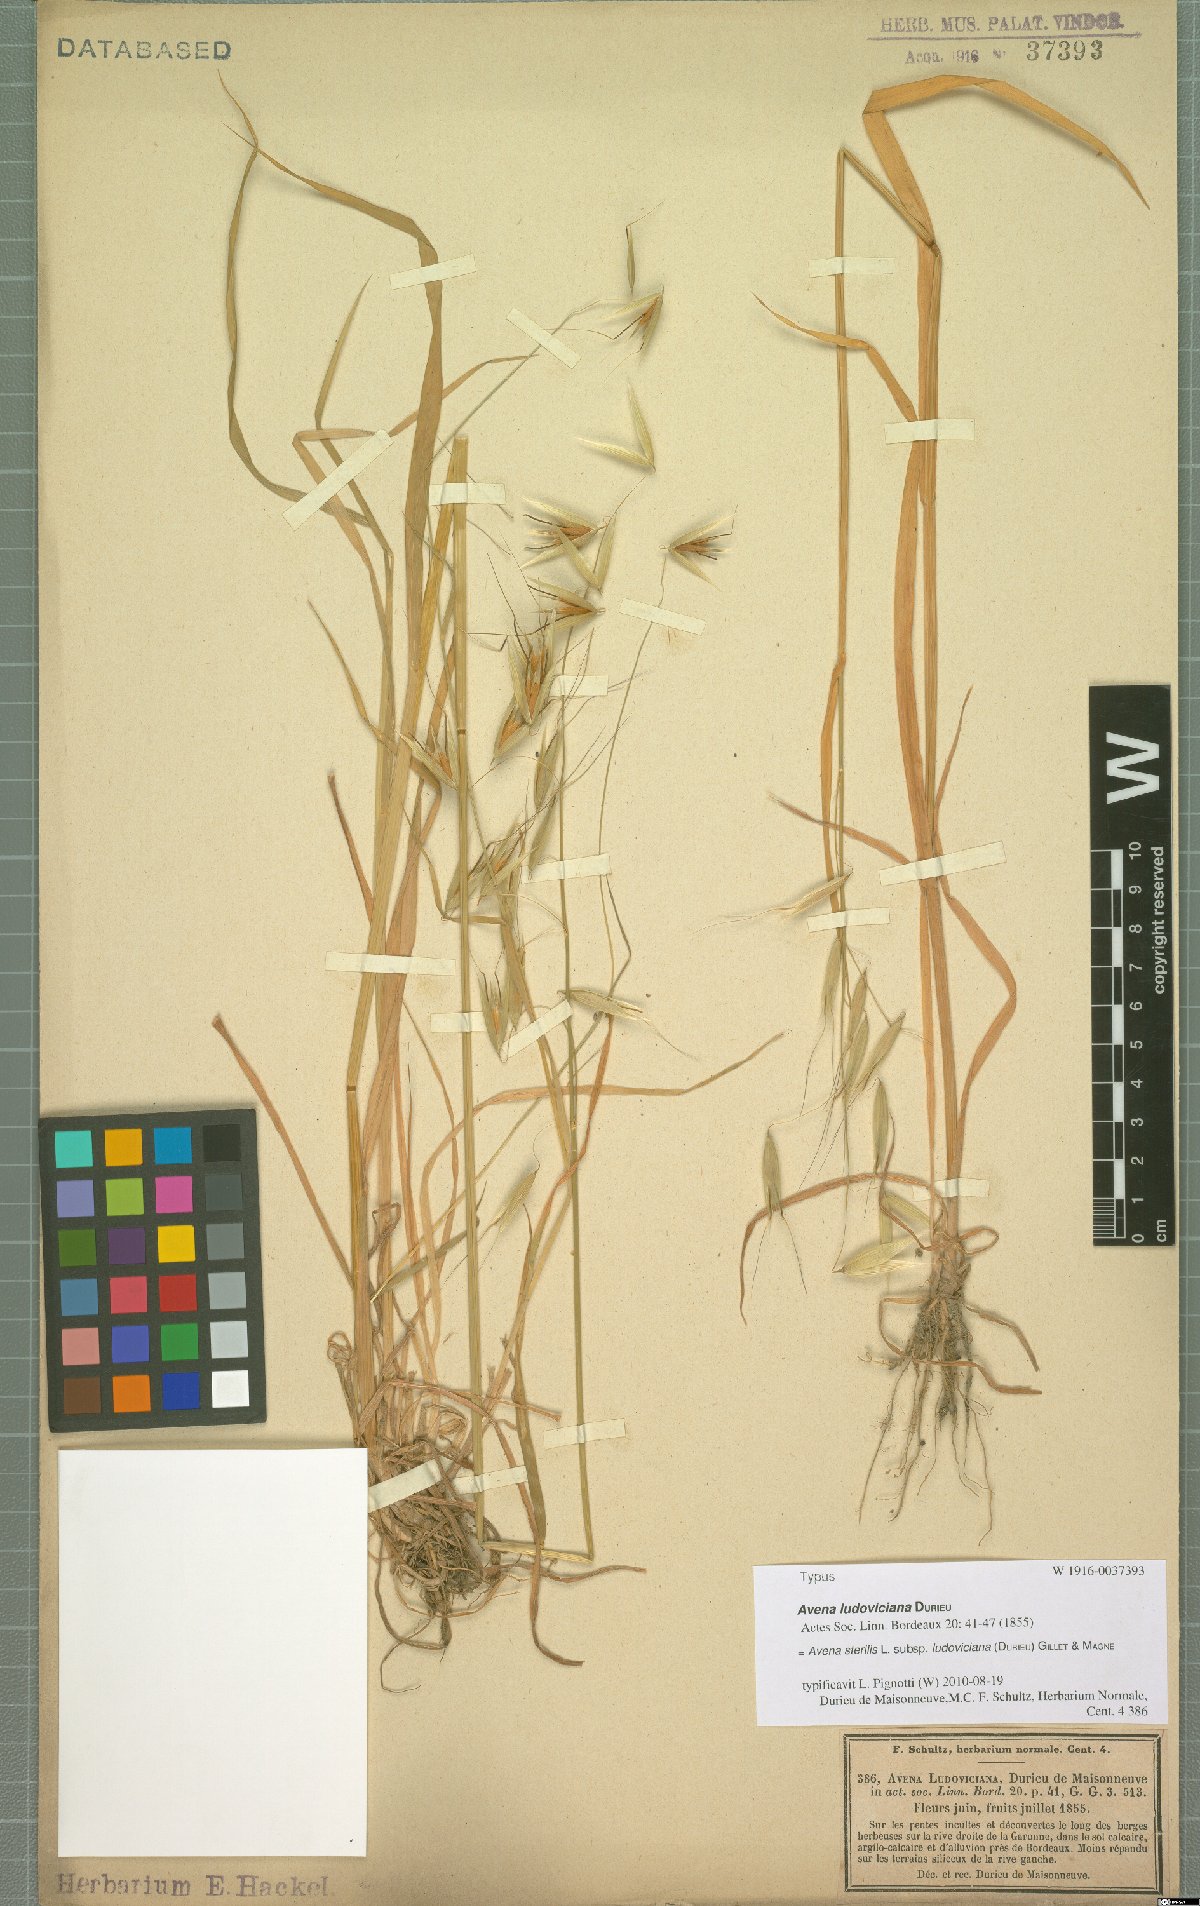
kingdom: Plantae
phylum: Tracheophyta
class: Liliopsida
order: Poales
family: Poaceae
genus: Avena
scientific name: Avena sterilis
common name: Animated oat
